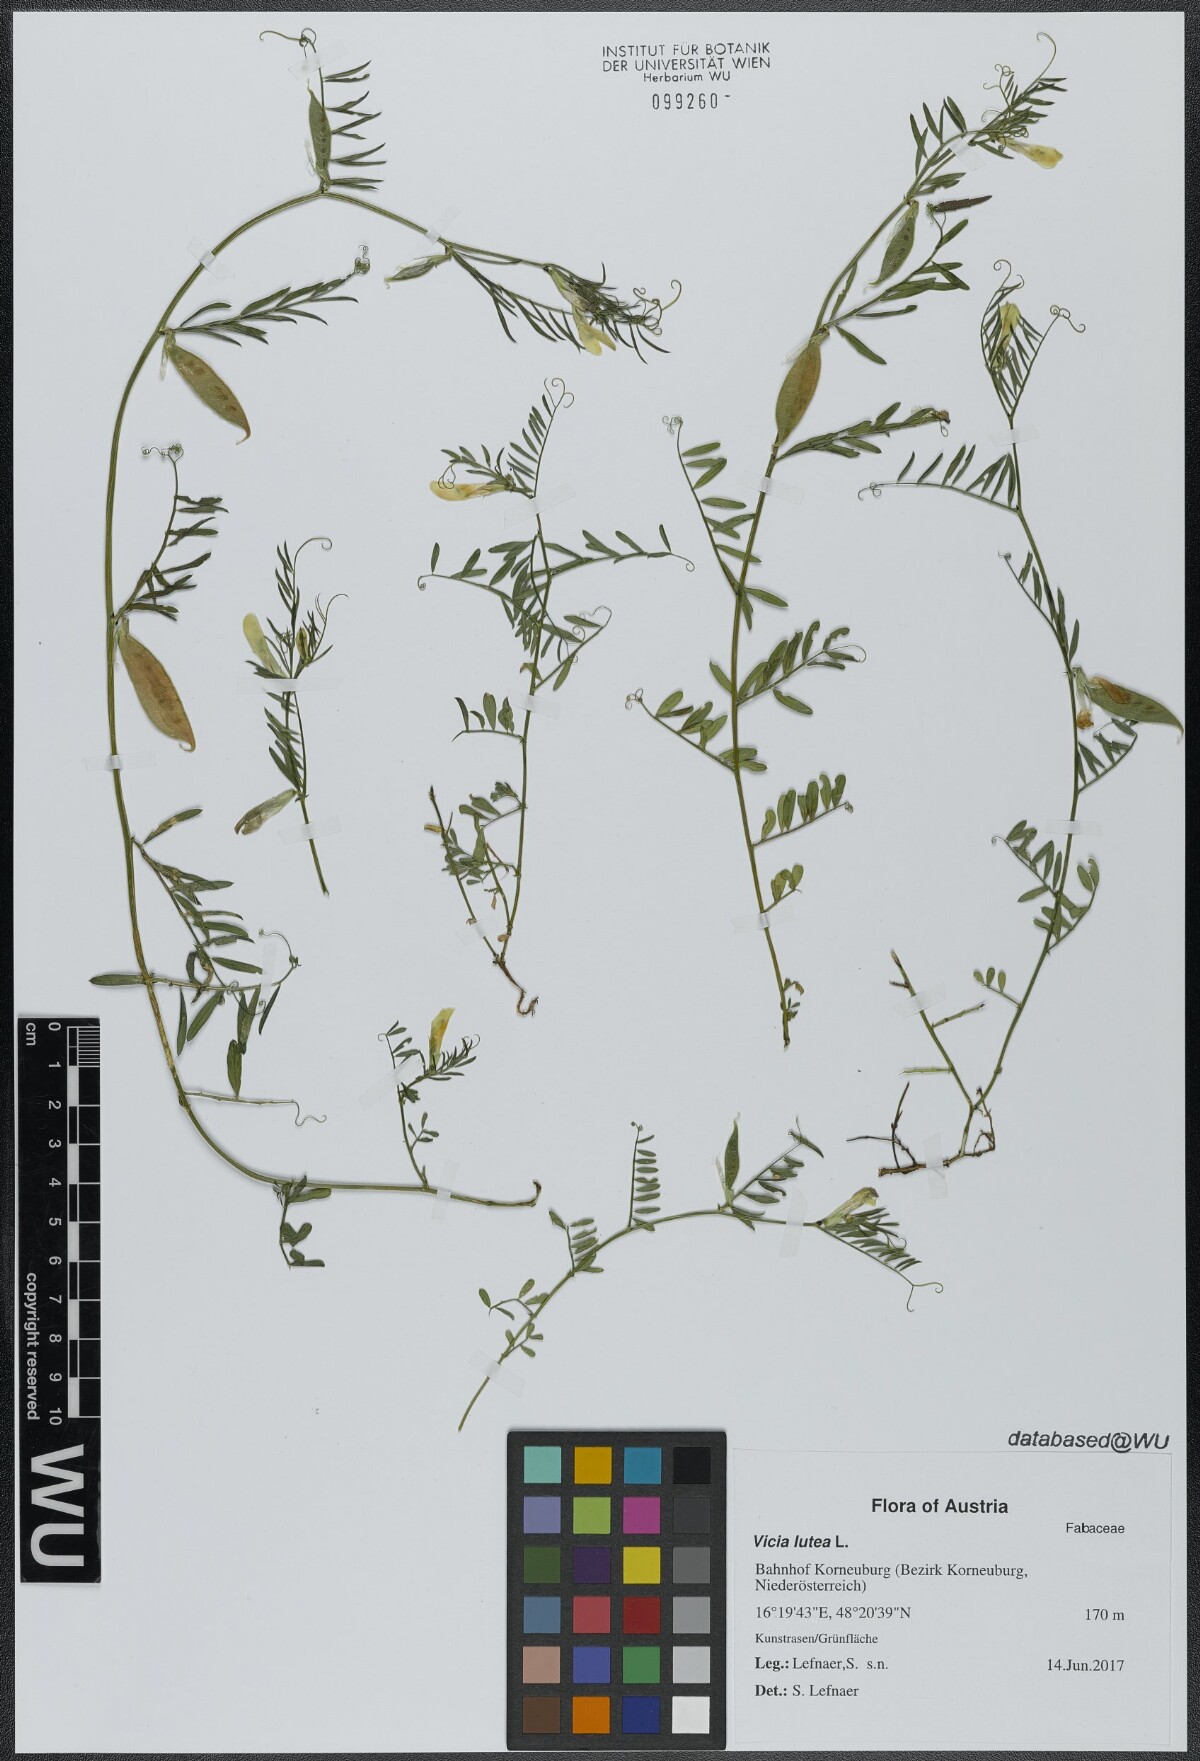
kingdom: Plantae
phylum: Tracheophyta
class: Magnoliopsida
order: Fabales
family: Fabaceae
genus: Vicia
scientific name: Vicia lutea
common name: Smooth yellow vetch
